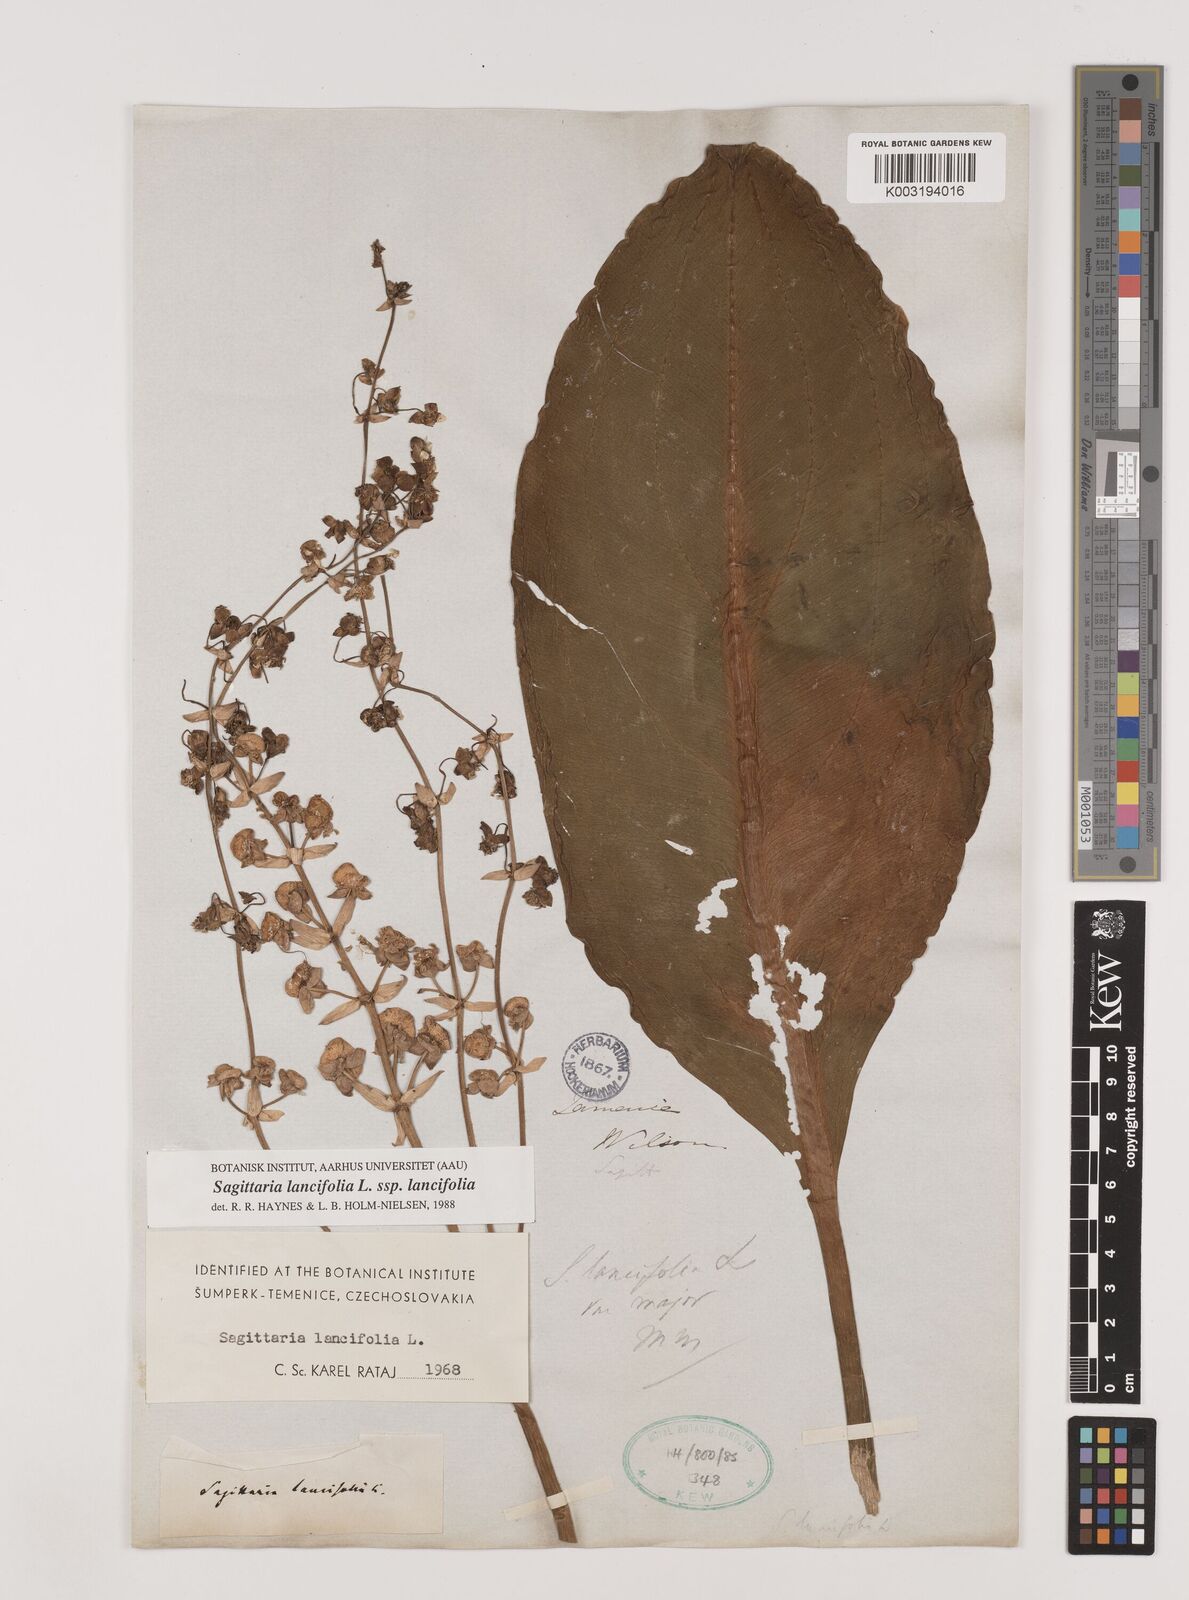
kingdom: Plantae
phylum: Tracheophyta
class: Liliopsida
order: Alismatales
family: Alismataceae
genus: Sagittaria
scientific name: Sagittaria lancifolia
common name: Lance-leaf arrowhead
